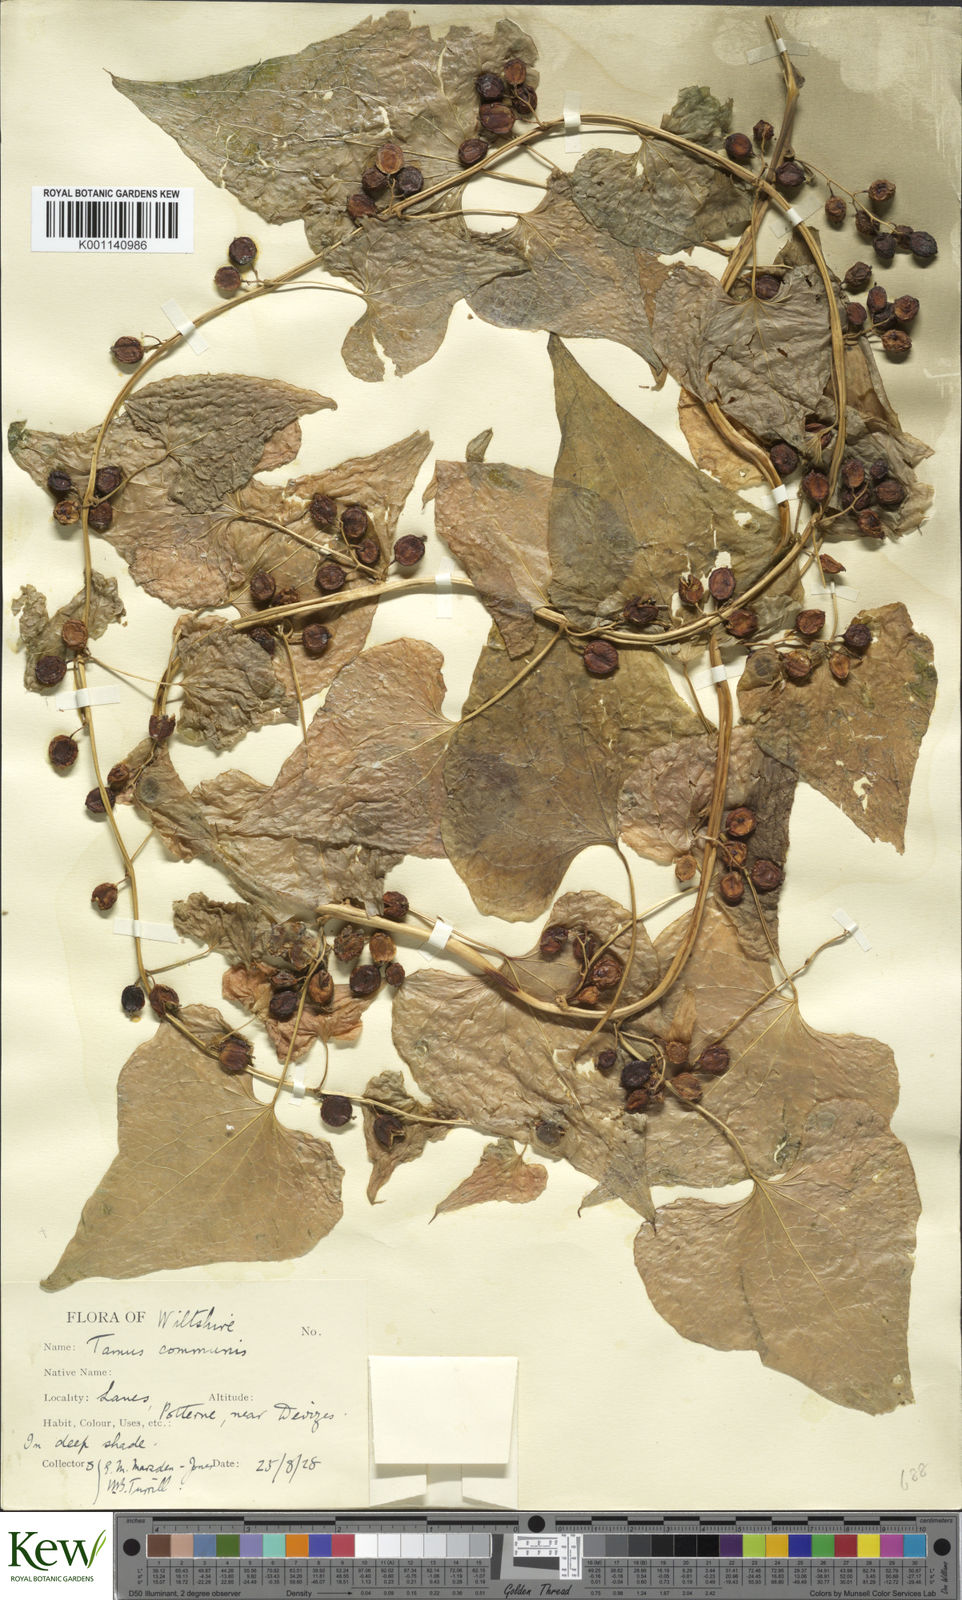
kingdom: Plantae
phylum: Tracheophyta
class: Liliopsida
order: Dioscoreales
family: Dioscoreaceae
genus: Dioscorea
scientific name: Dioscorea communis
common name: Black-bindweed
